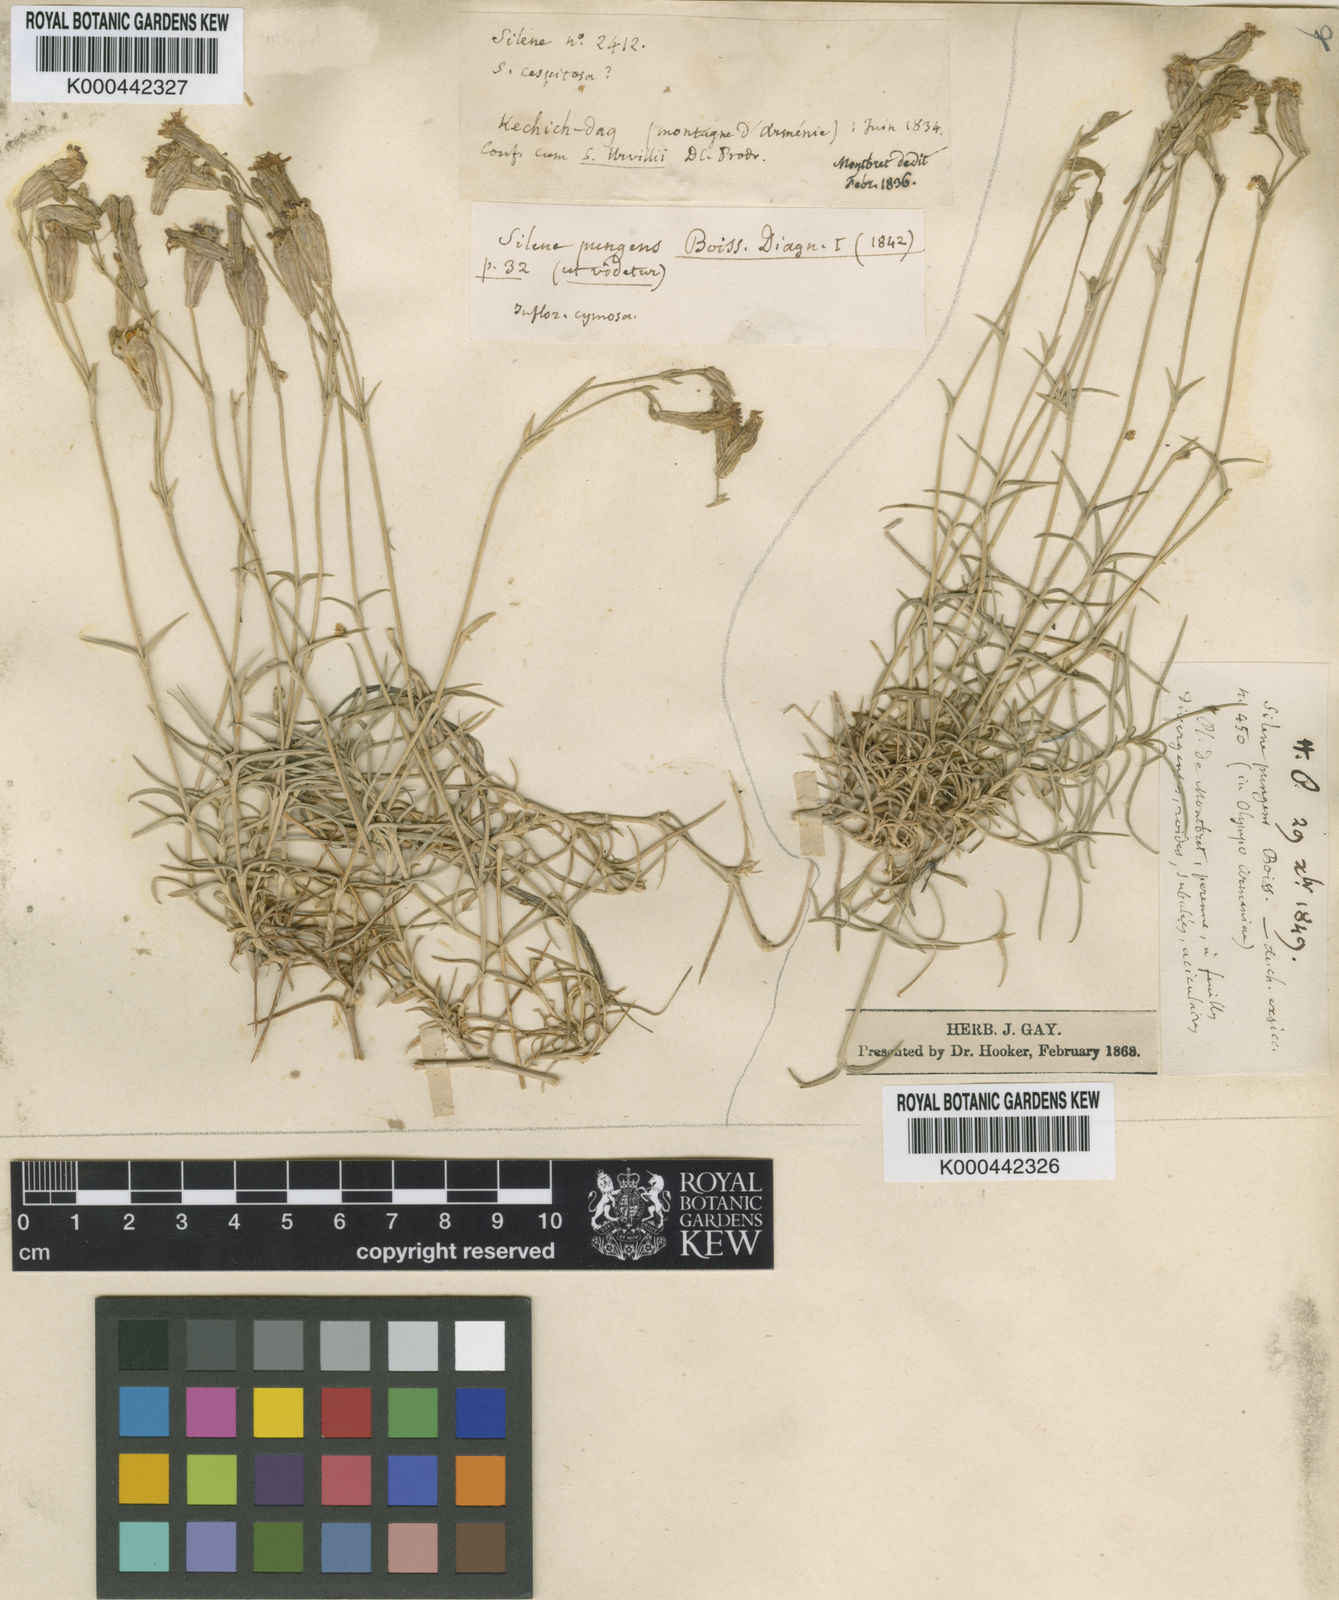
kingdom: Plantae
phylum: Tracheophyta
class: Magnoliopsida
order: Caryophyllales
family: Caryophyllaceae
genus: Silene
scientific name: Silene pungens
